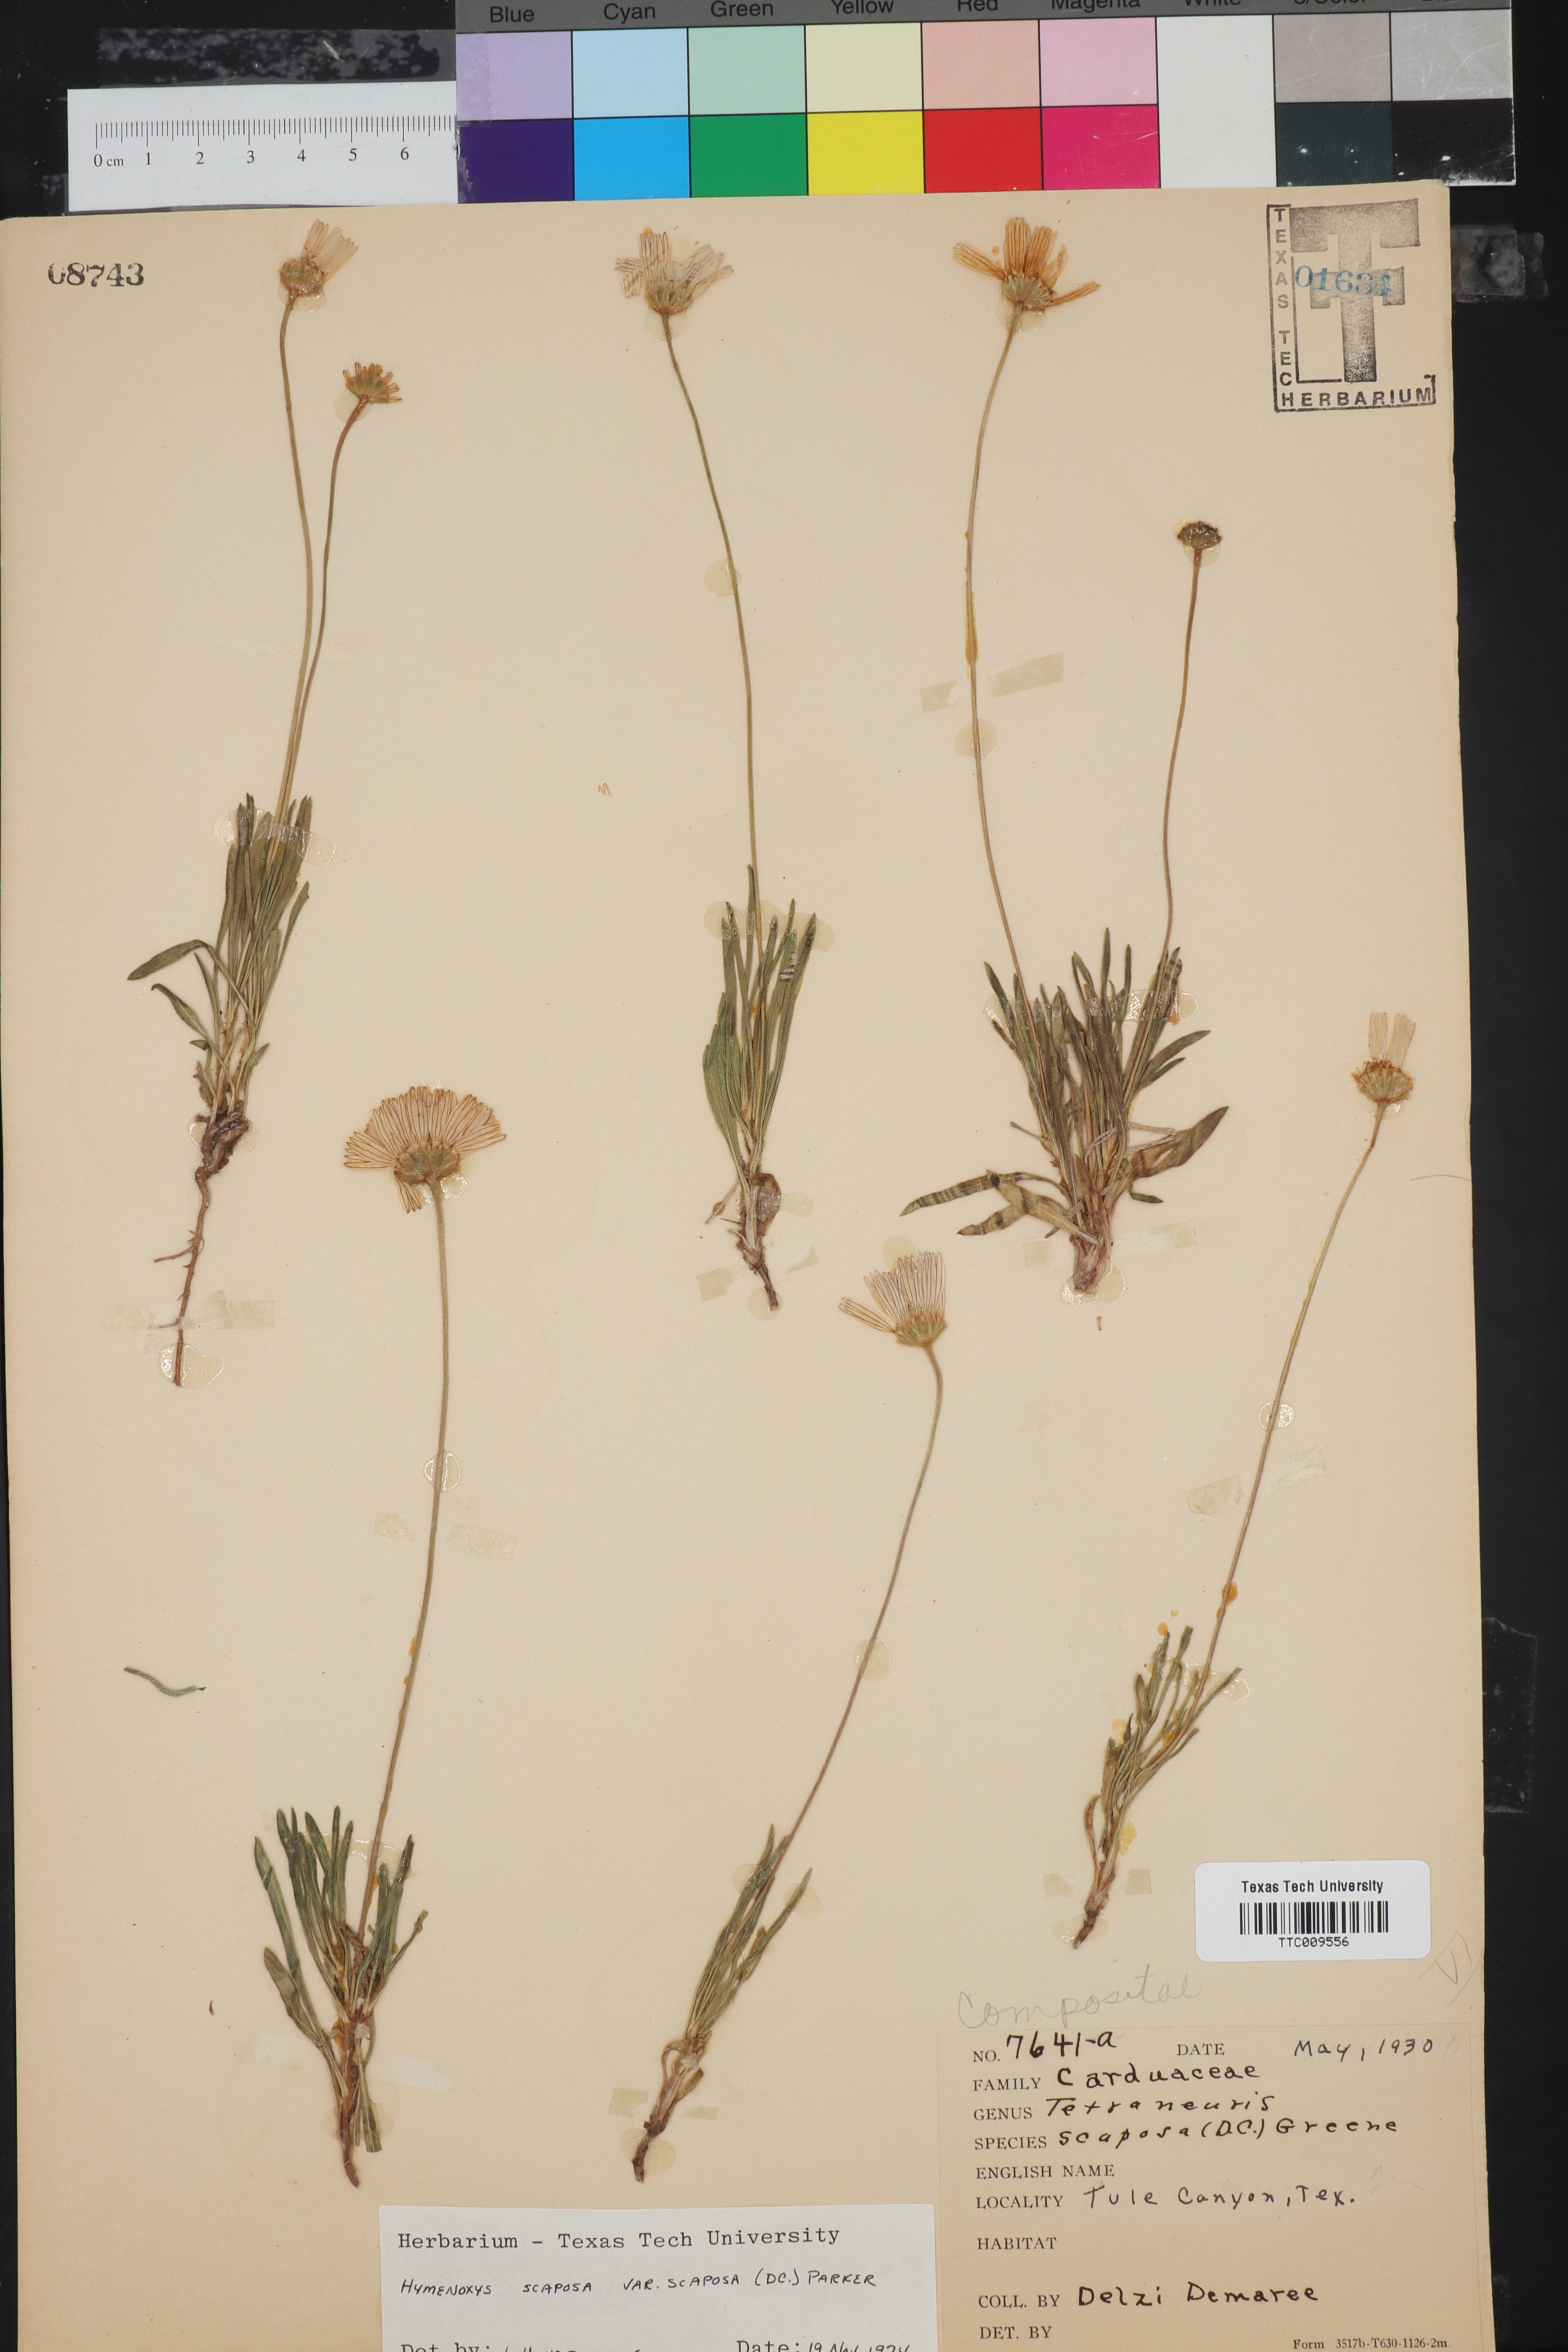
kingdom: Plantae
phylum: Tracheophyta
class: Magnoliopsida
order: Asterales
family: Asteraceae
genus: Tetraneuris
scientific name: Tetraneuris scaposa
